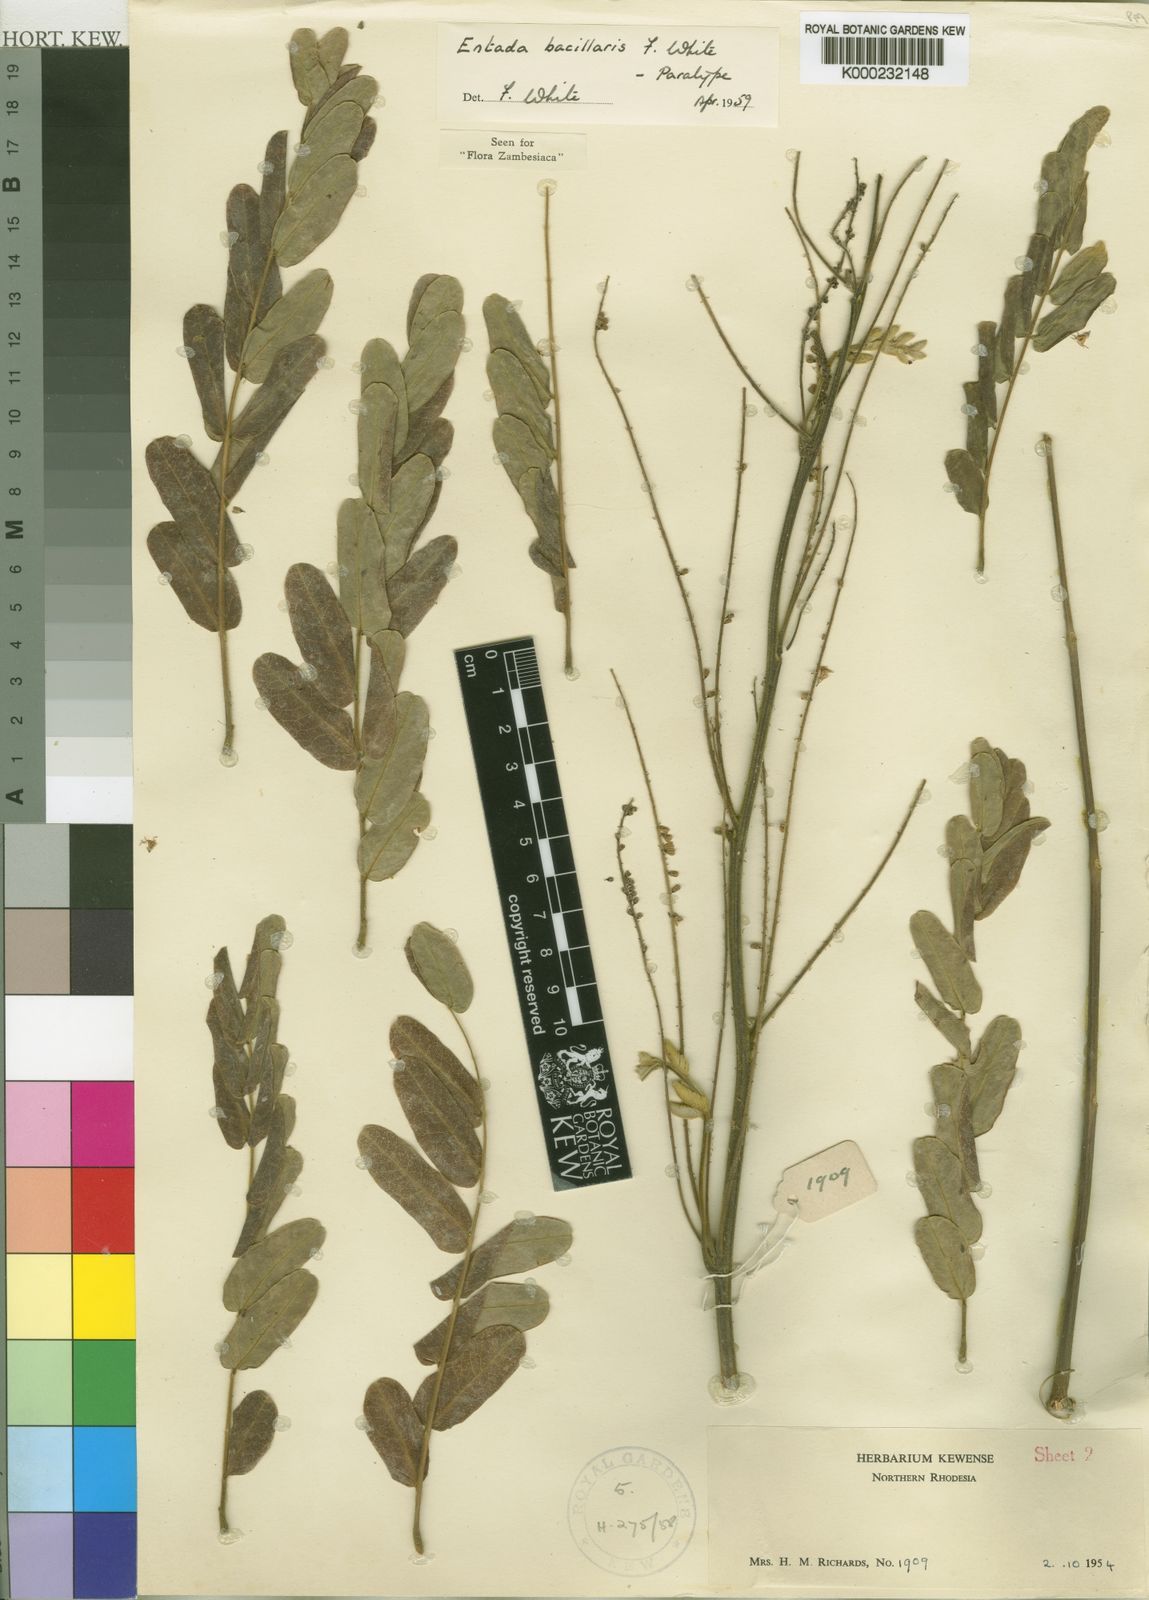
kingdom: Plantae
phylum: Tracheophyta
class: Magnoliopsida
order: Fabales
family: Fabaceae
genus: Entada
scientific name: Entada bacillaris
